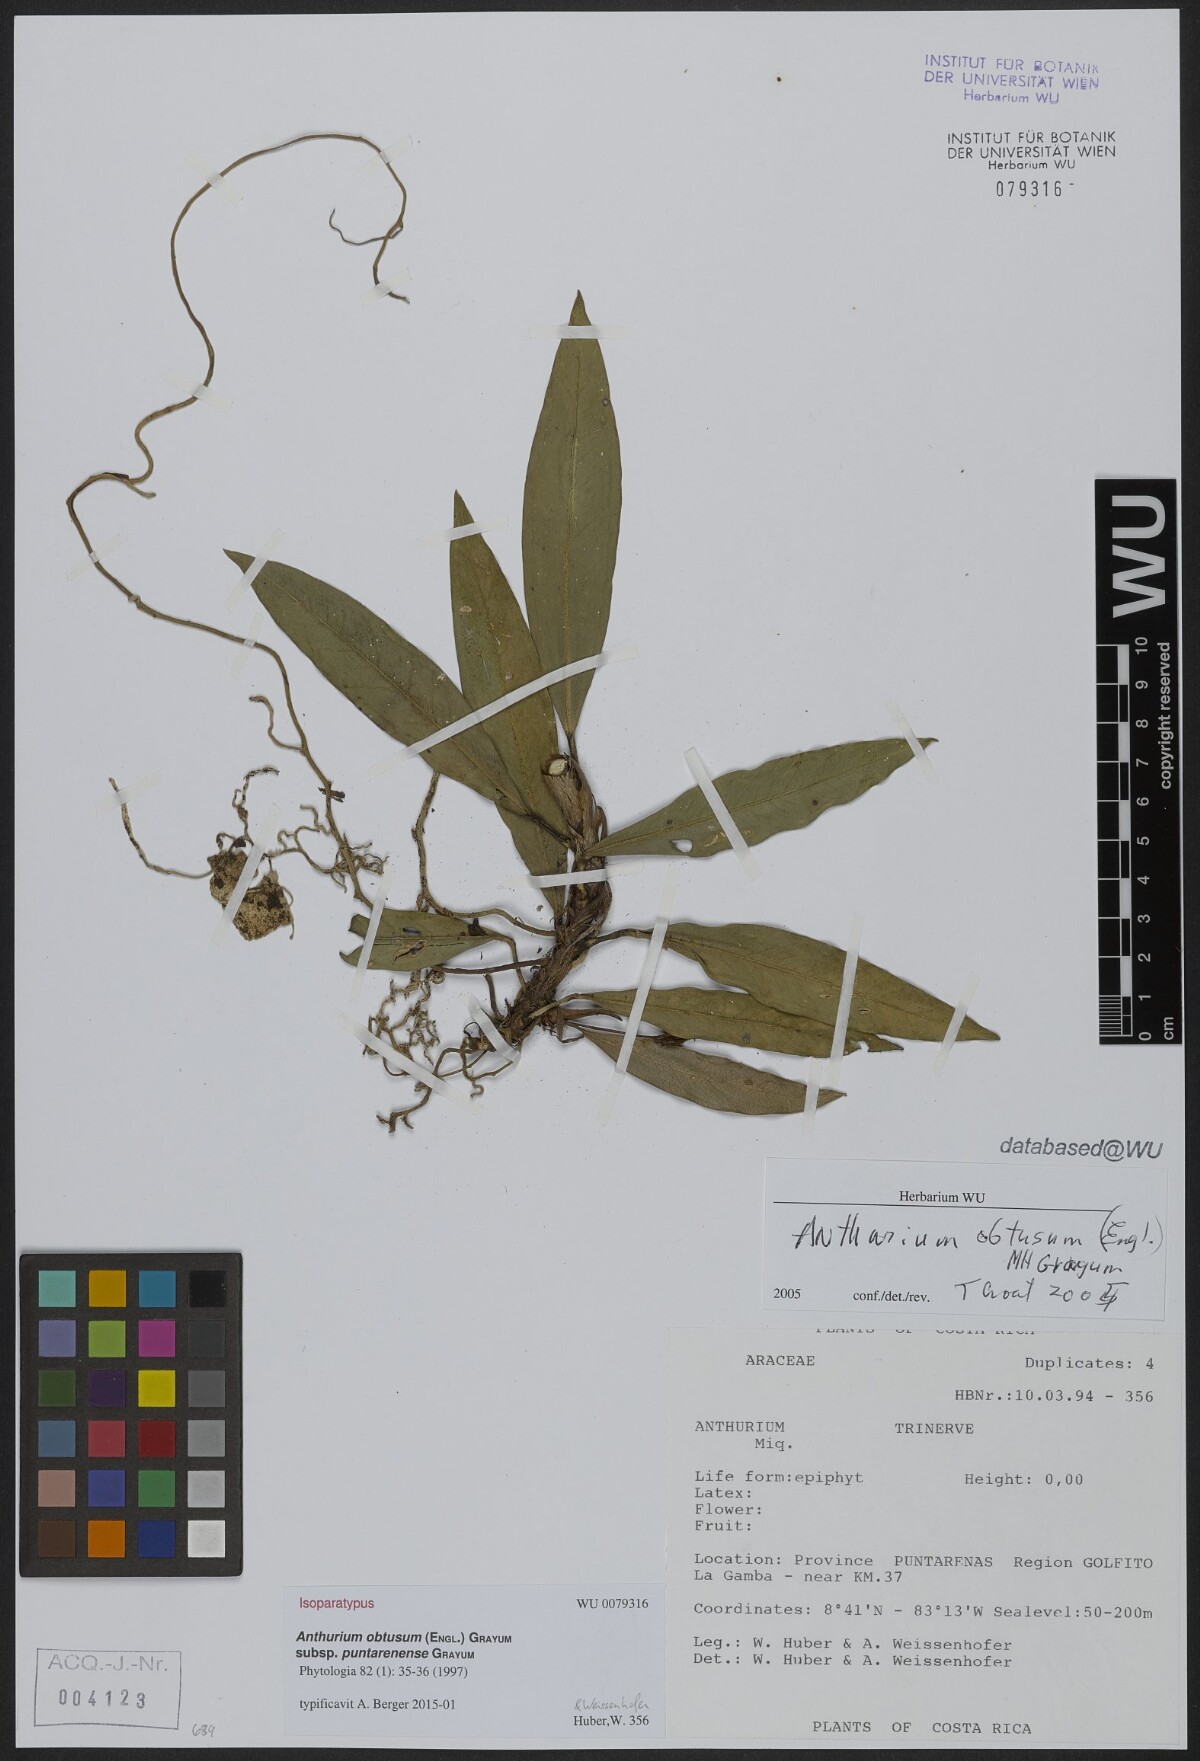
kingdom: Plantae
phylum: Tracheophyta
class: Liliopsida
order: Alismatales
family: Araceae
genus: Anthurium
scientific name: Anthurium obtusum
